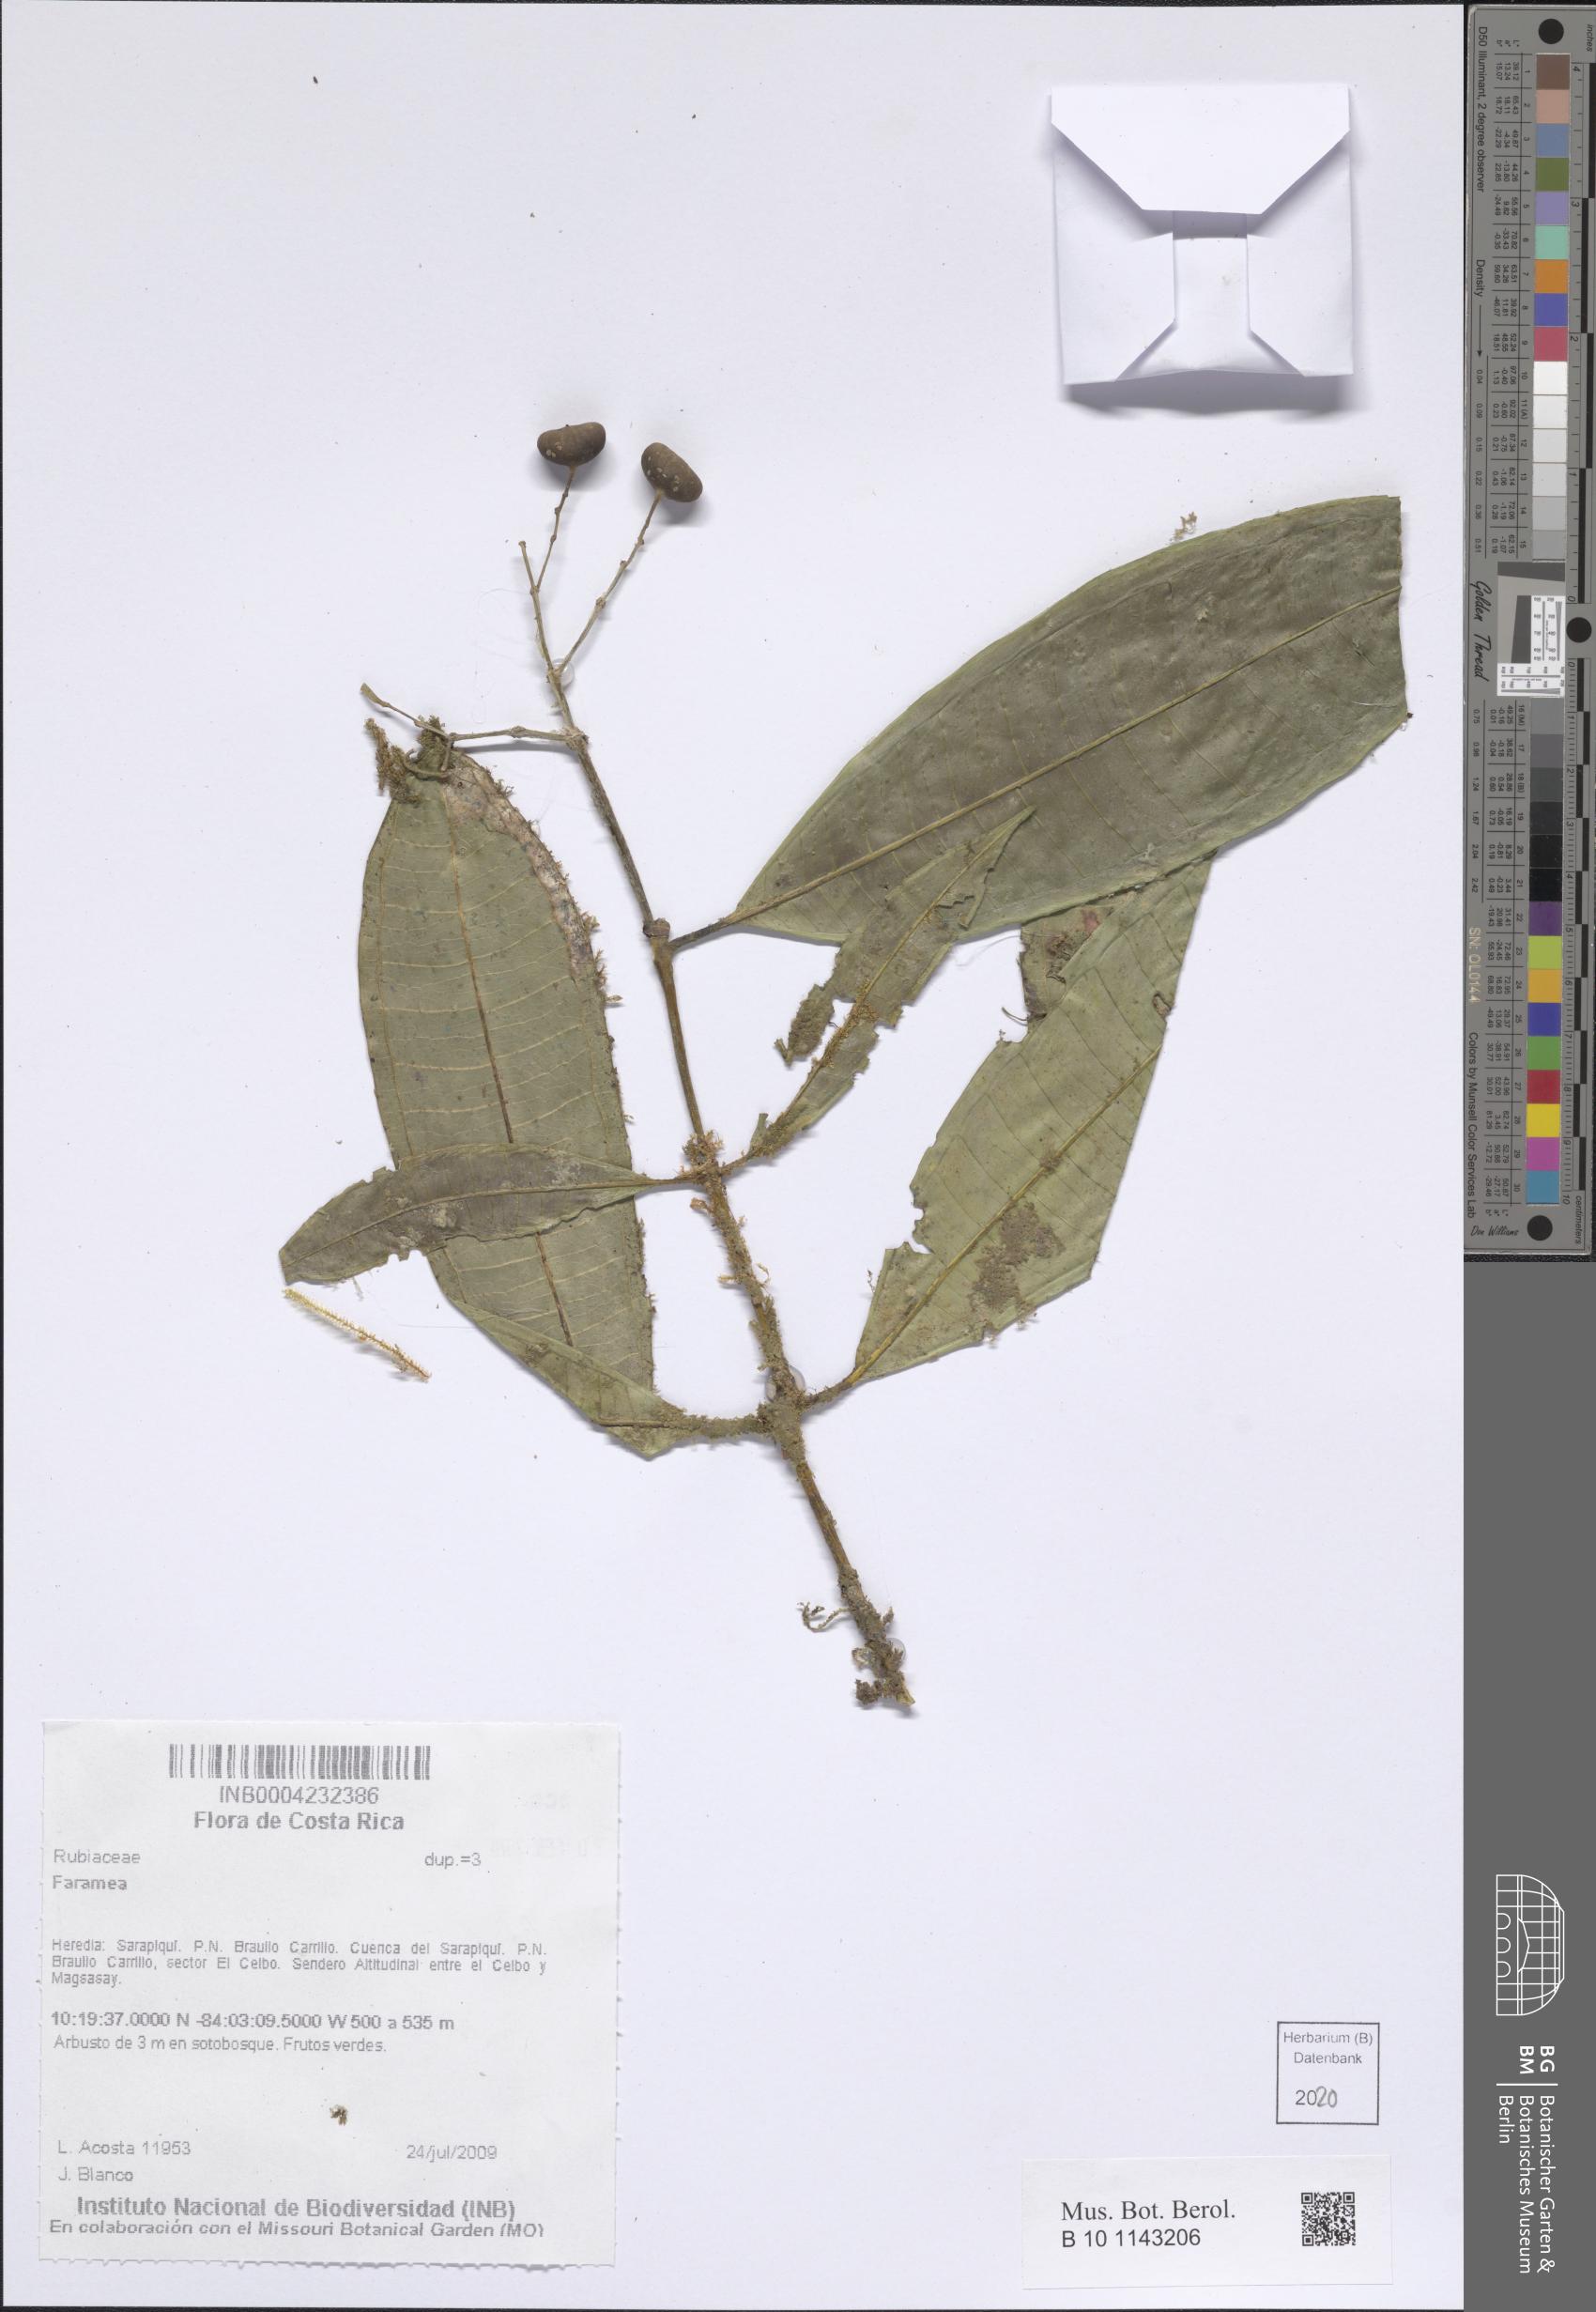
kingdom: Plantae
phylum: Tracheophyta
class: Magnoliopsida
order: Gentianales
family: Rubiaceae
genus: Faramea
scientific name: Faramea
